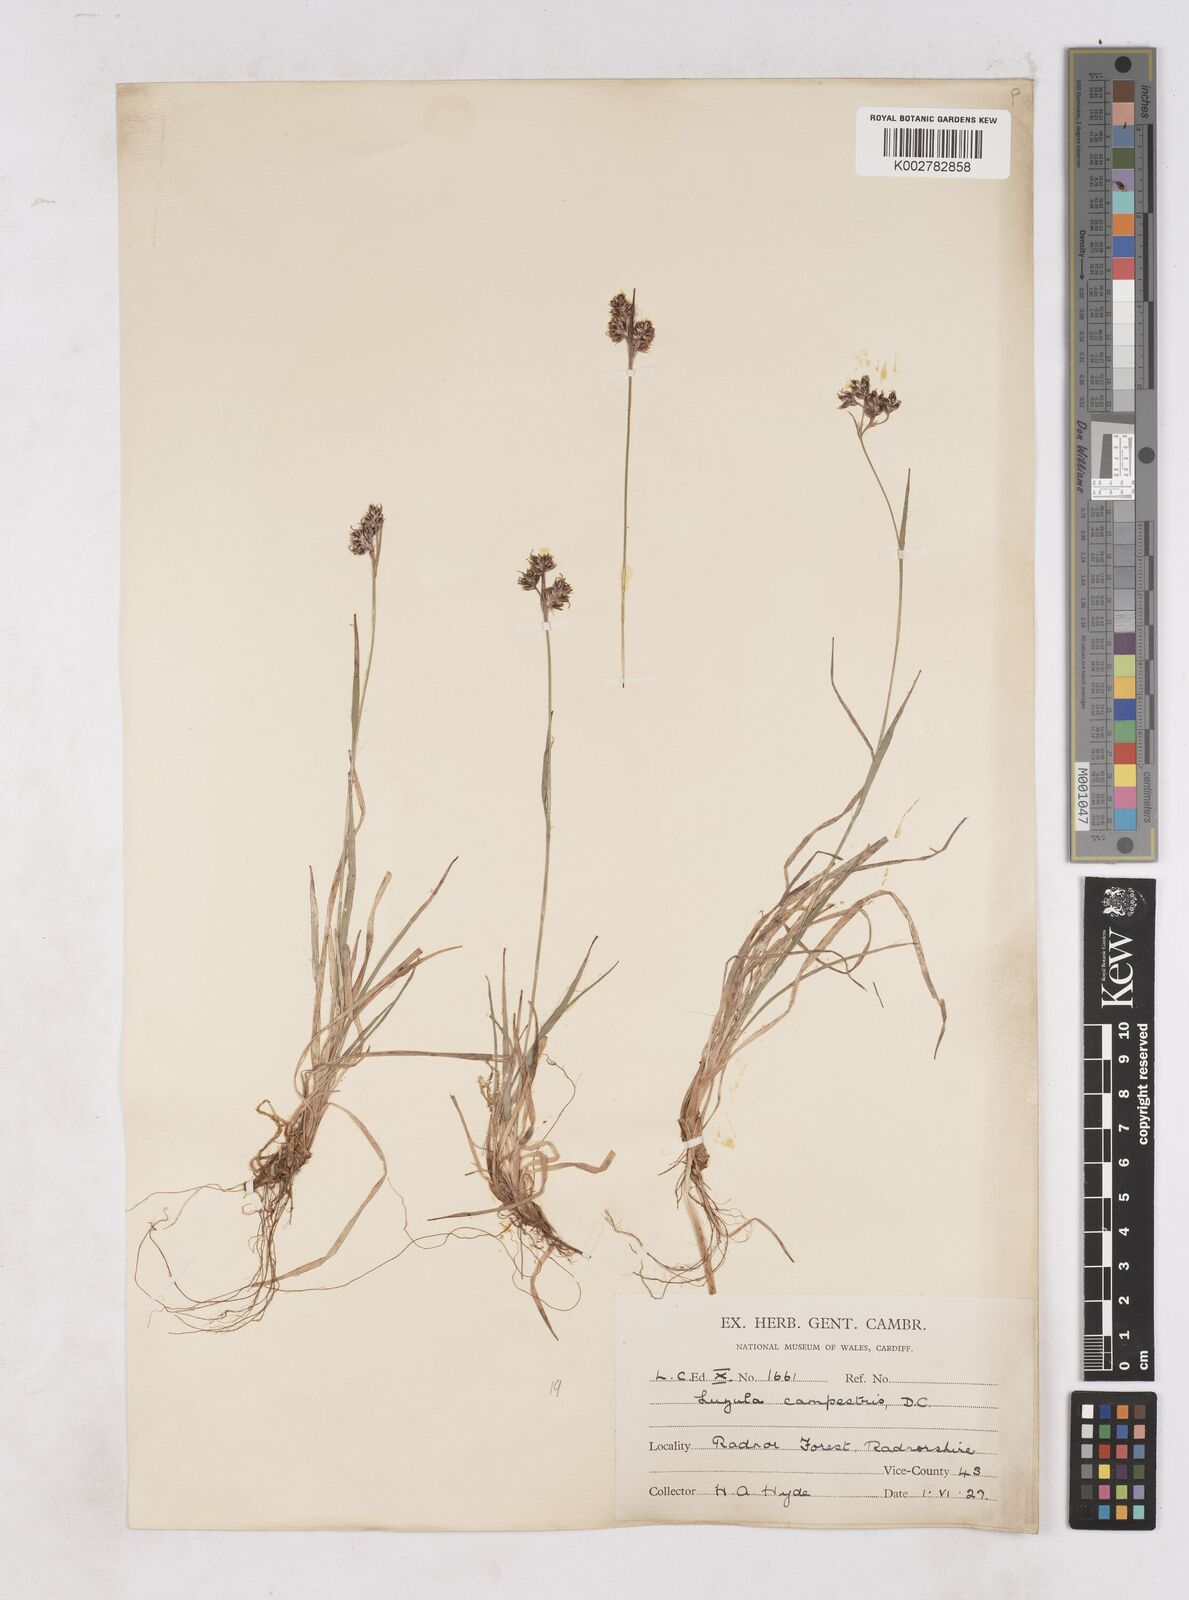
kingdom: Plantae
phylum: Tracheophyta
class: Liliopsida
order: Poales
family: Juncaceae
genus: Luzula
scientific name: Luzula campestris
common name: Field wood-rush
